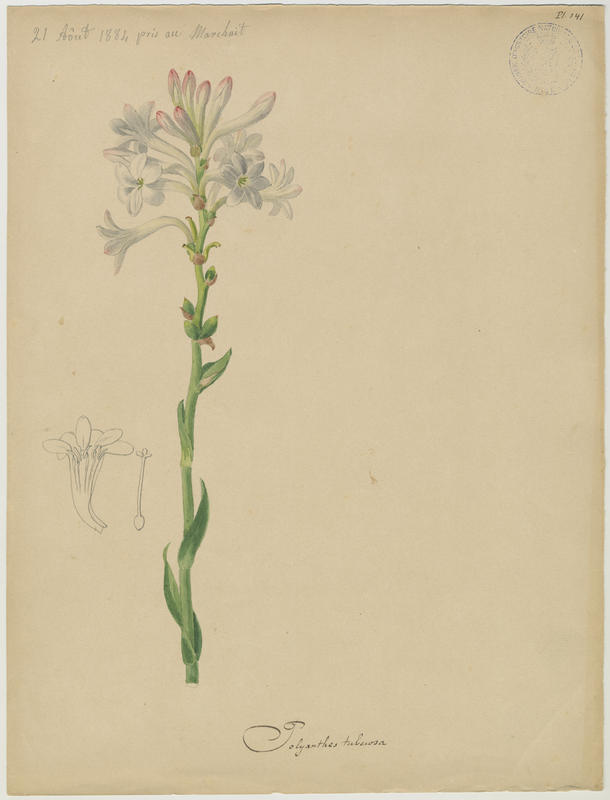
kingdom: Plantae
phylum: Tracheophyta
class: Liliopsida
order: Liliales
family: Liliaceae
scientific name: Liliaceae
